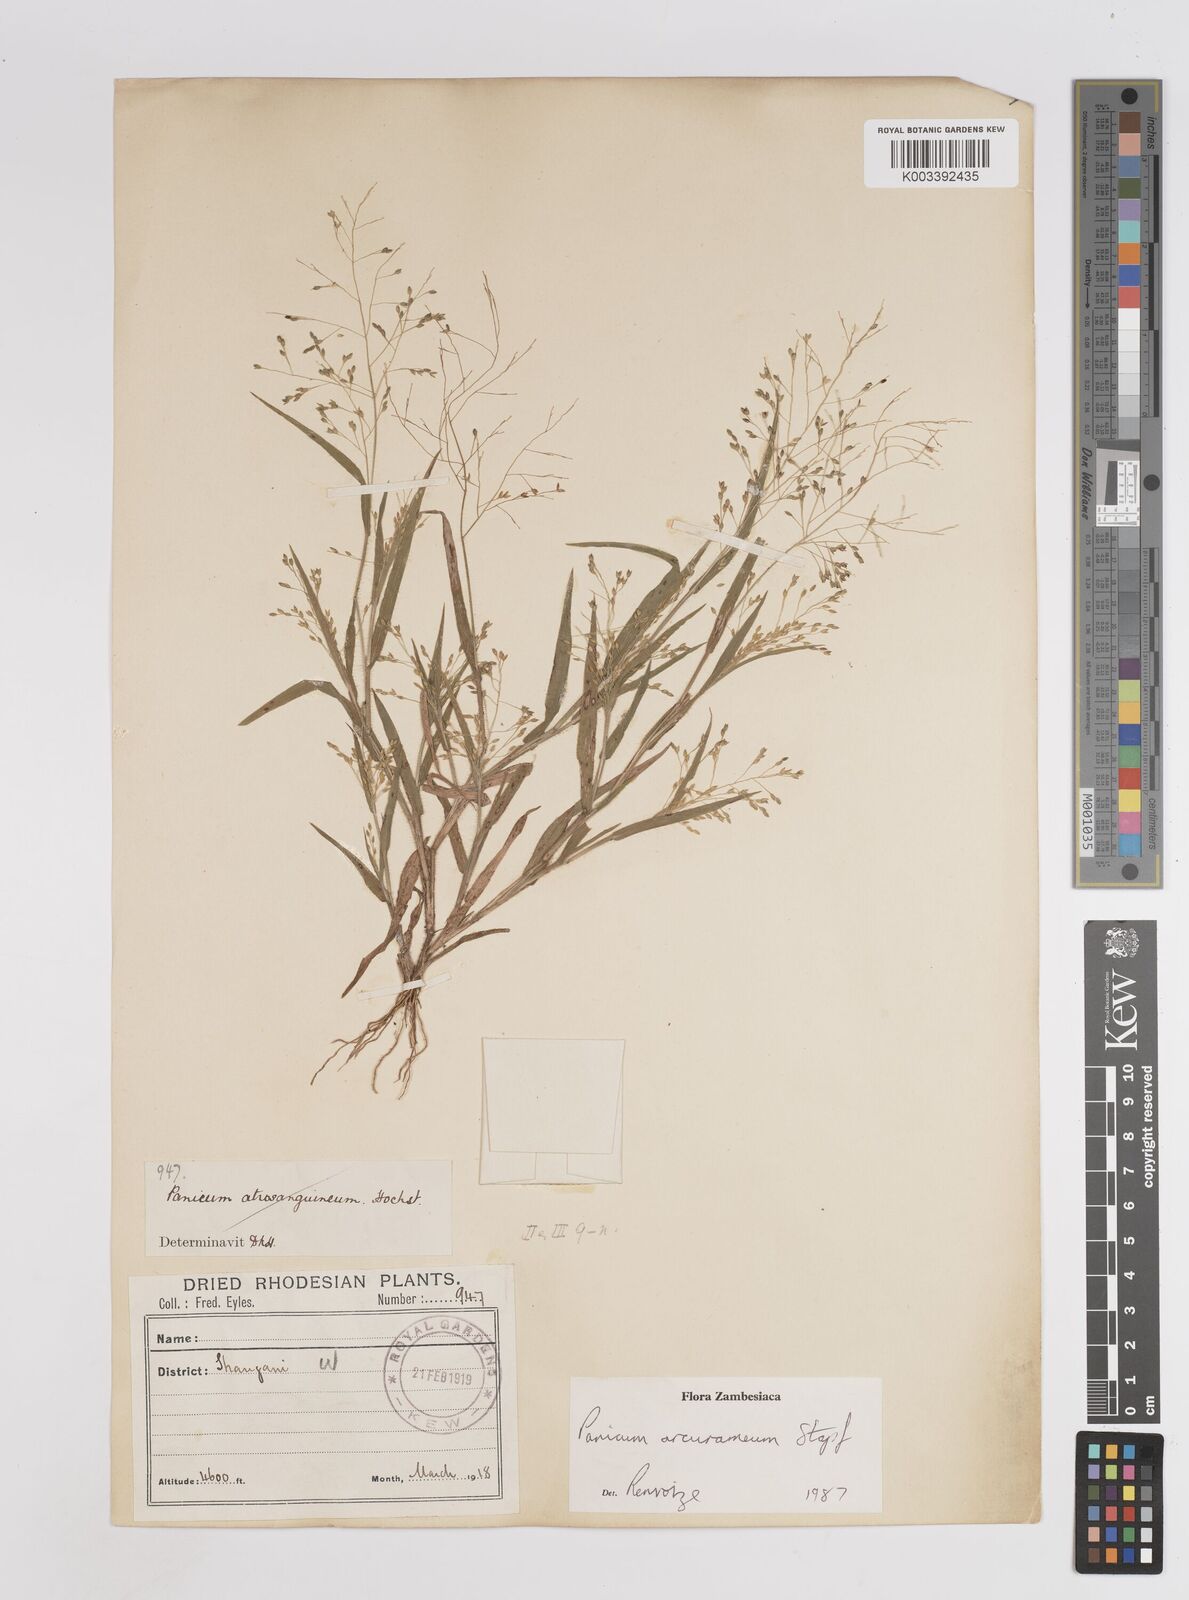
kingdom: Plantae
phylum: Tracheophyta
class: Liliopsida
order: Poales
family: Poaceae
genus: Panicum
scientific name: Panicum arcurameum
